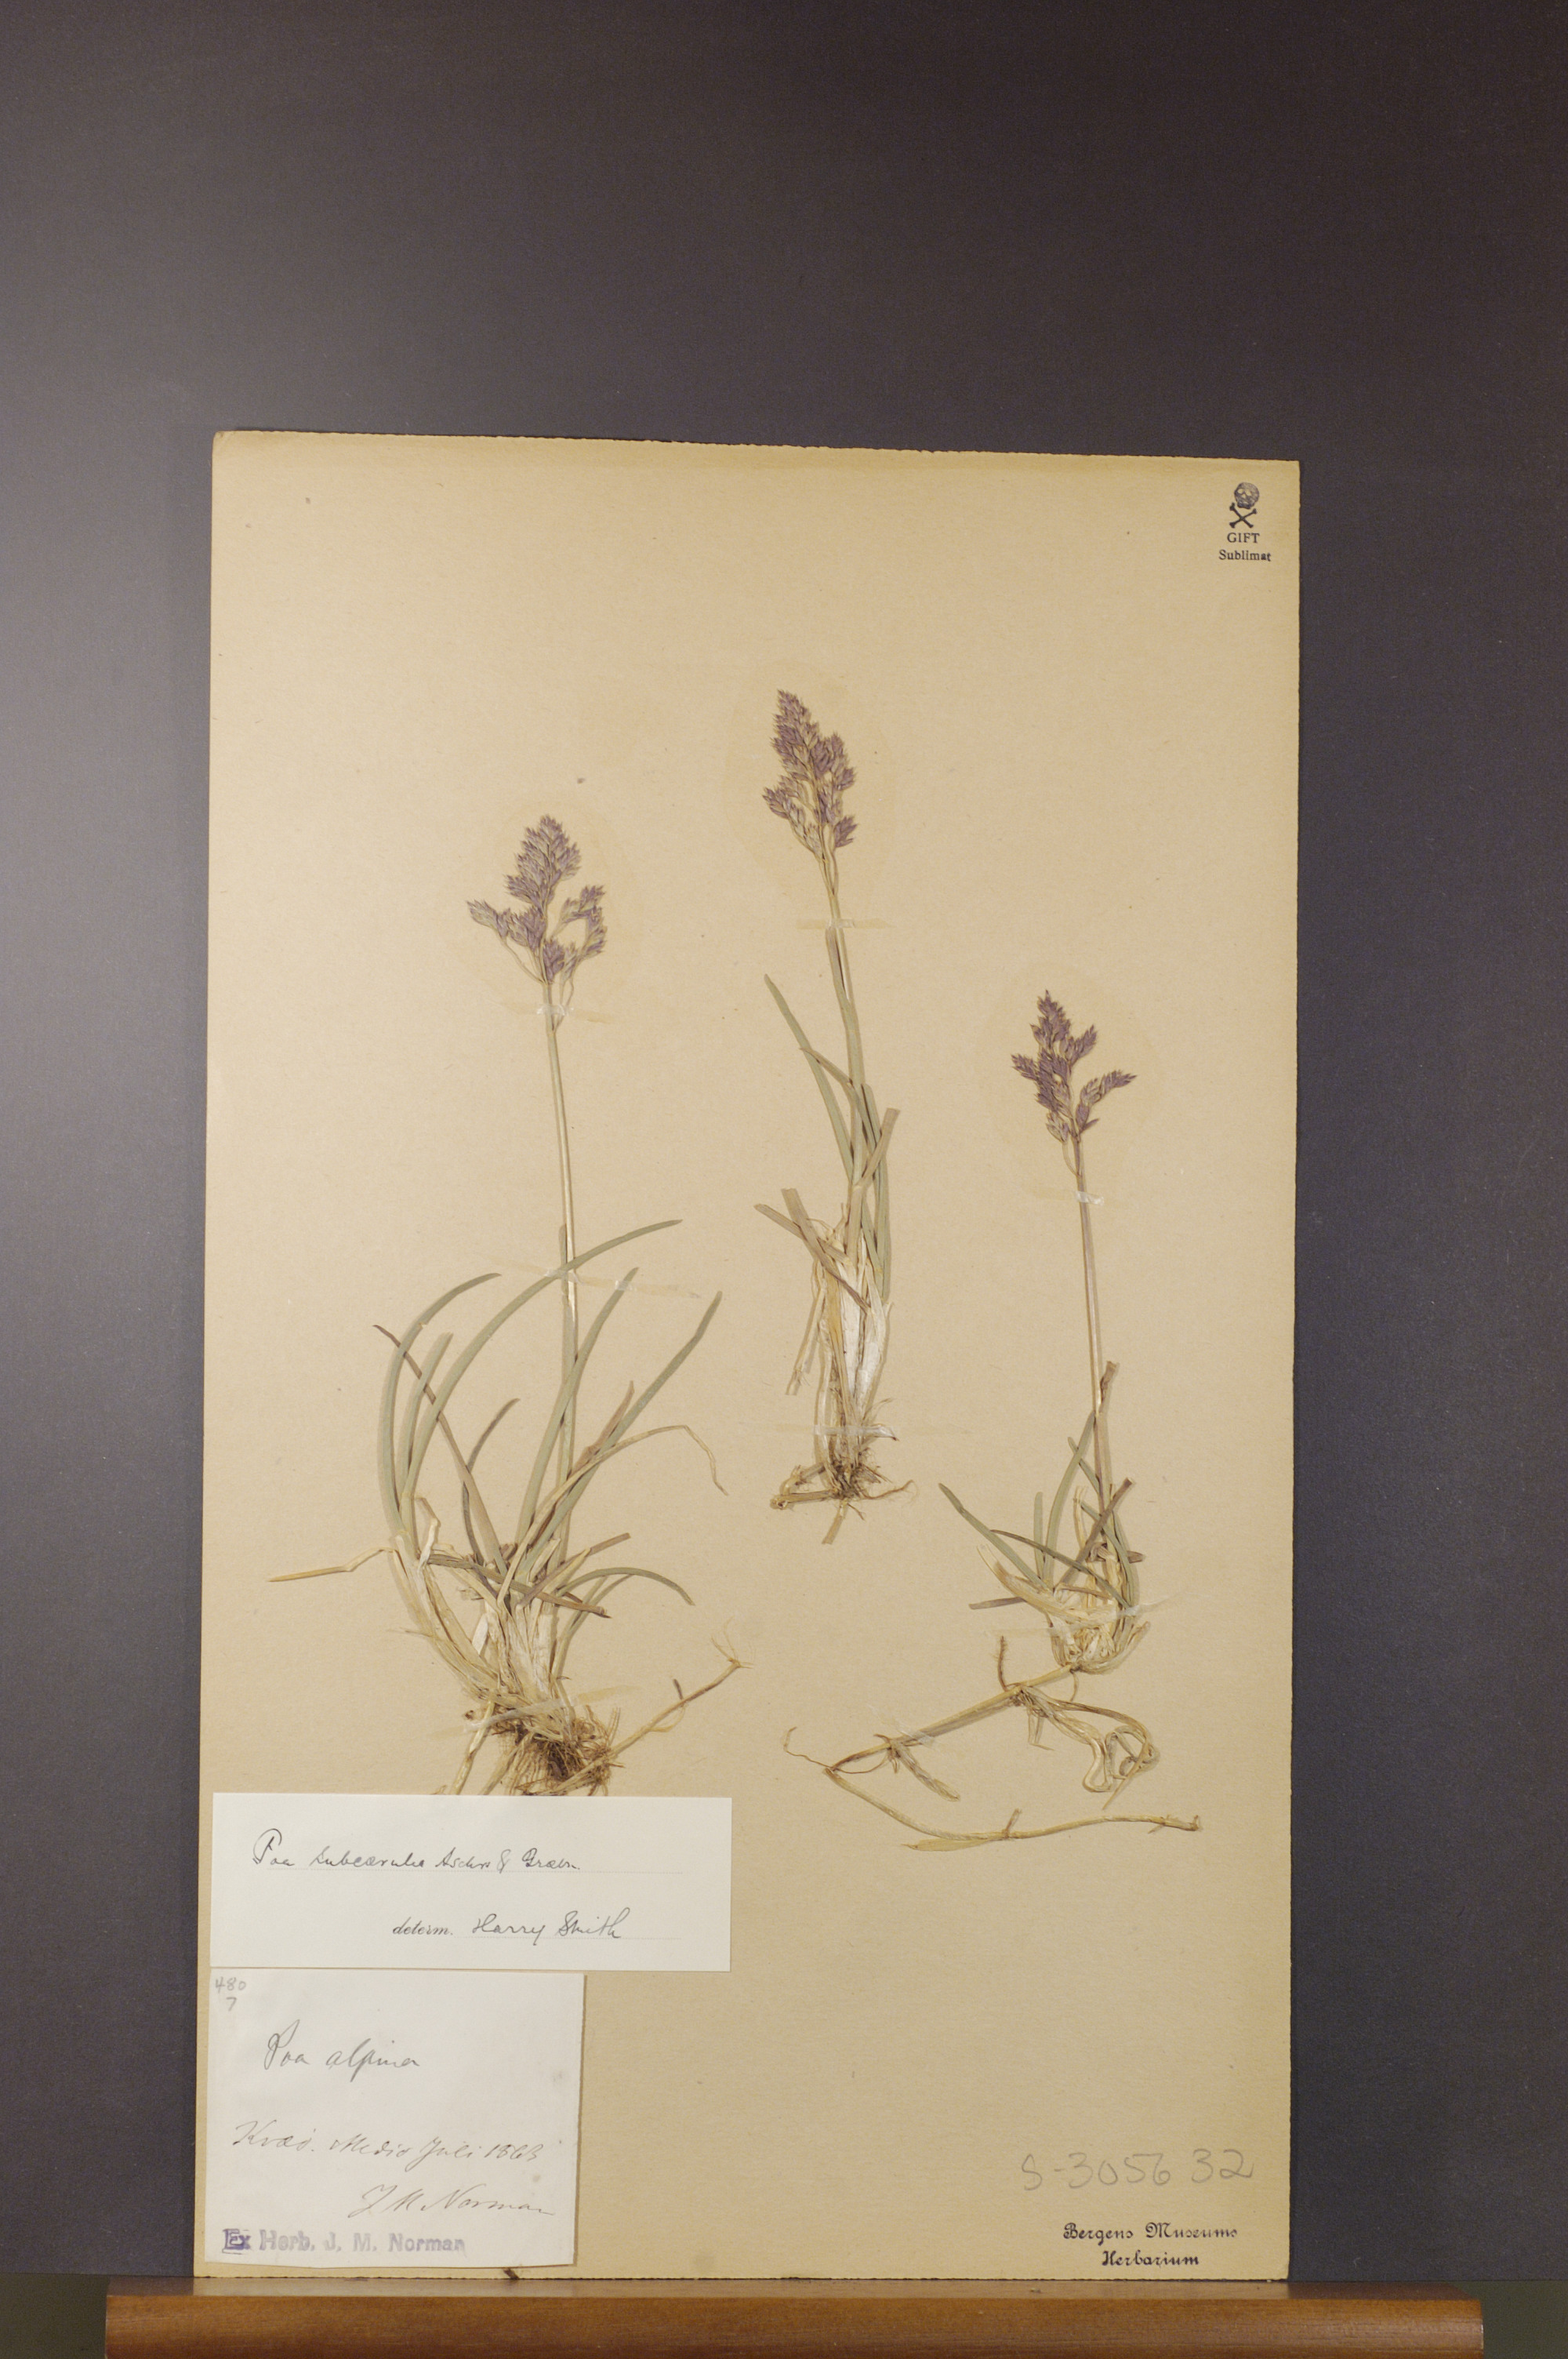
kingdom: Plantae
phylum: Tracheophyta
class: Liliopsida
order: Poales
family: Poaceae
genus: Poa
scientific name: Poa humilis
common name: Spreading meadow-grass
